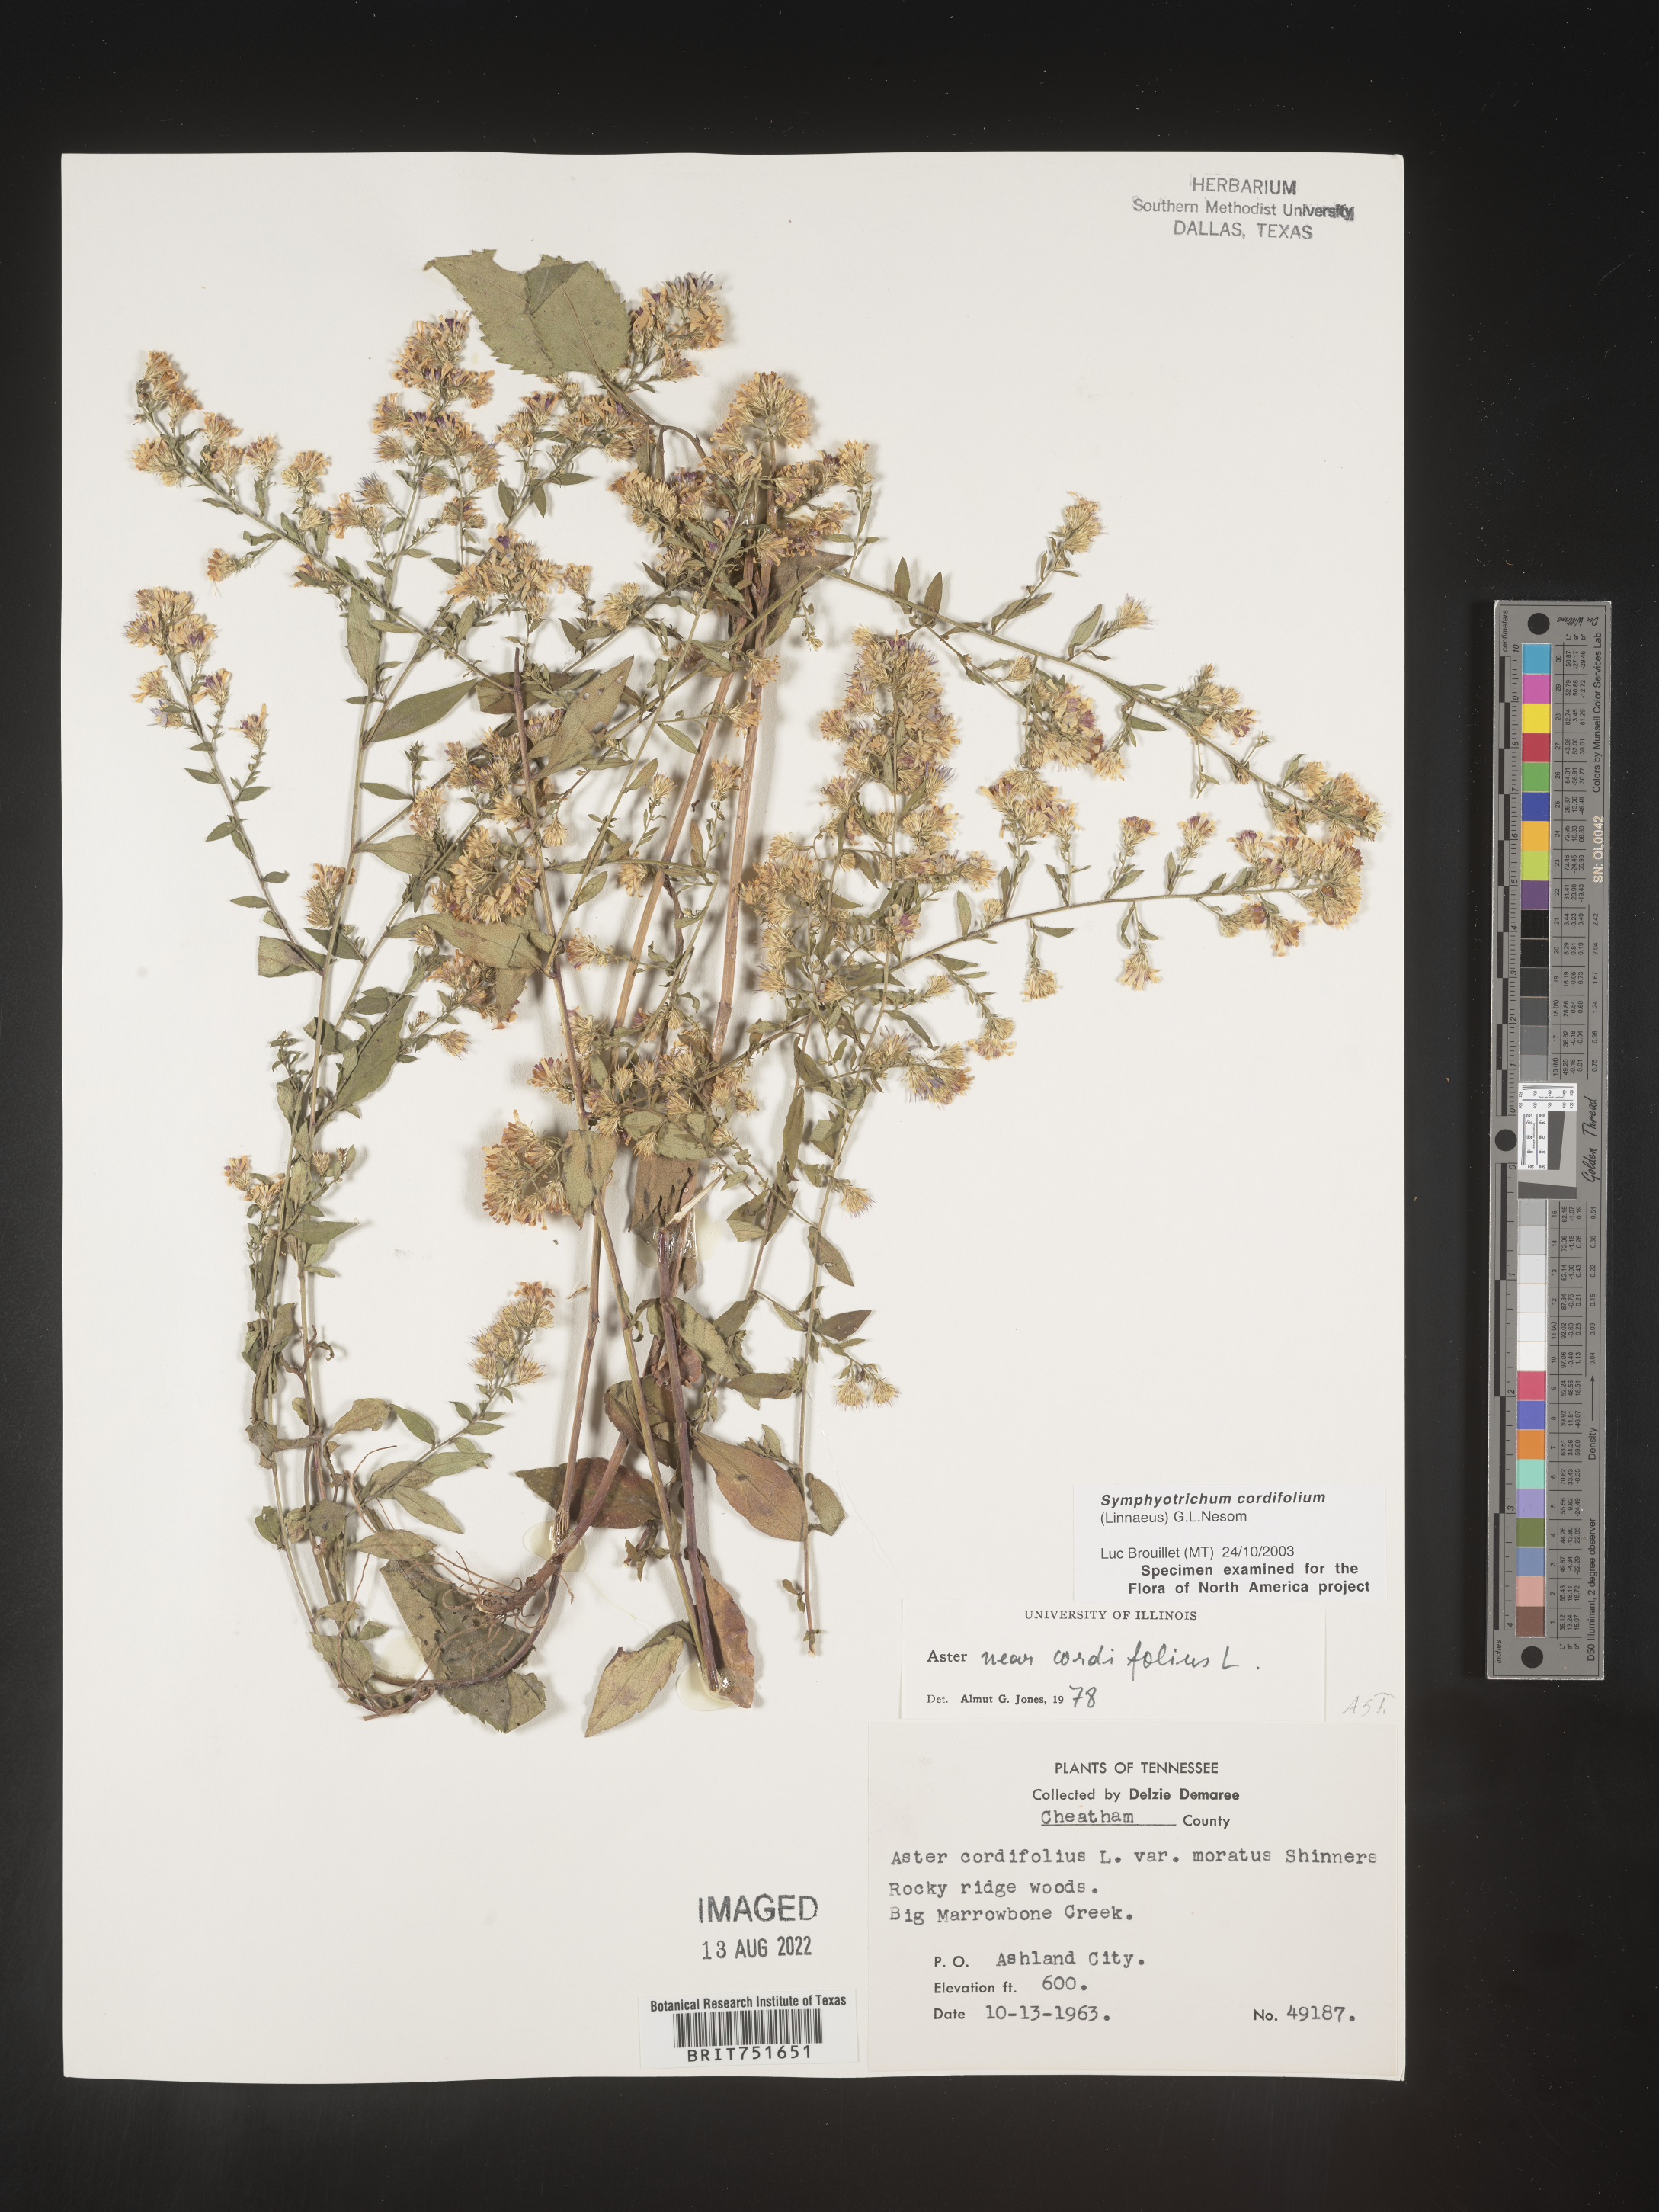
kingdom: Plantae
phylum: Tracheophyta
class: Magnoliopsida
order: Asterales
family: Asteraceae
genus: Symphyotrichum
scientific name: Symphyotrichum cordifolium
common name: Beeweed
